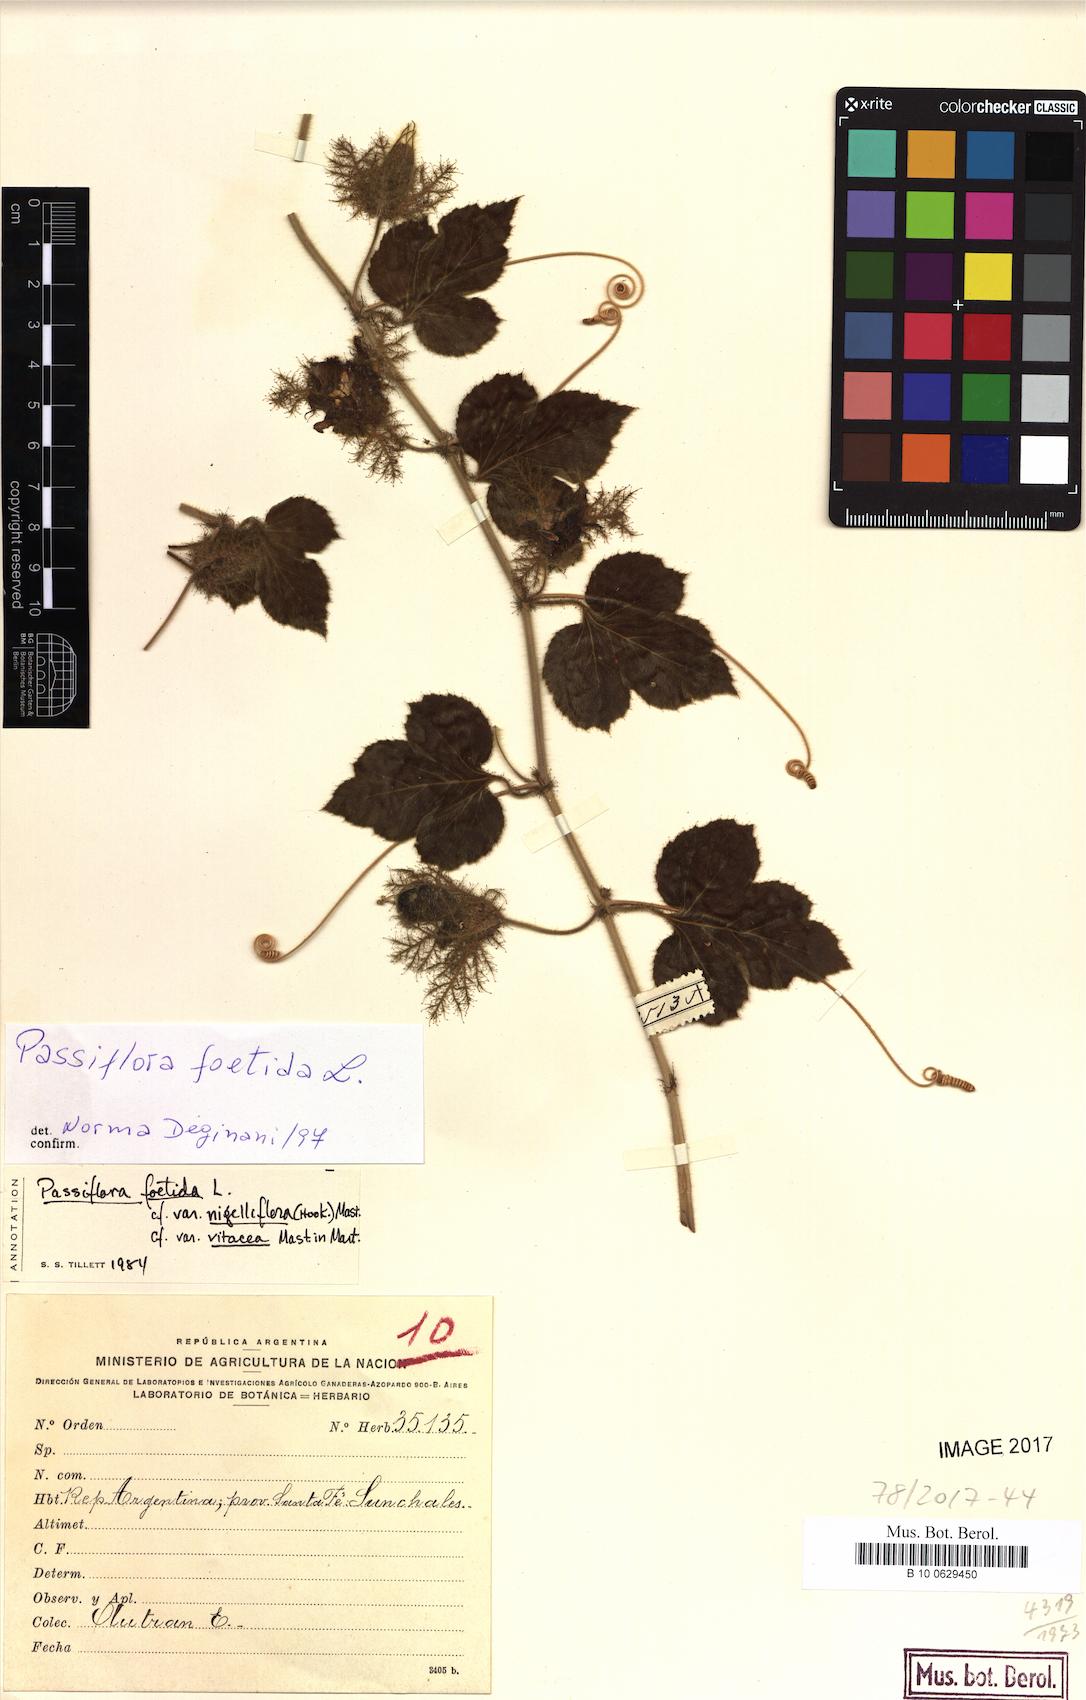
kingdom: Plantae
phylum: Tracheophyta
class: Magnoliopsida
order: Malpighiales
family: Passifloraceae
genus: Passiflora
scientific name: Passiflora foetida
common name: Fetid passionflower
